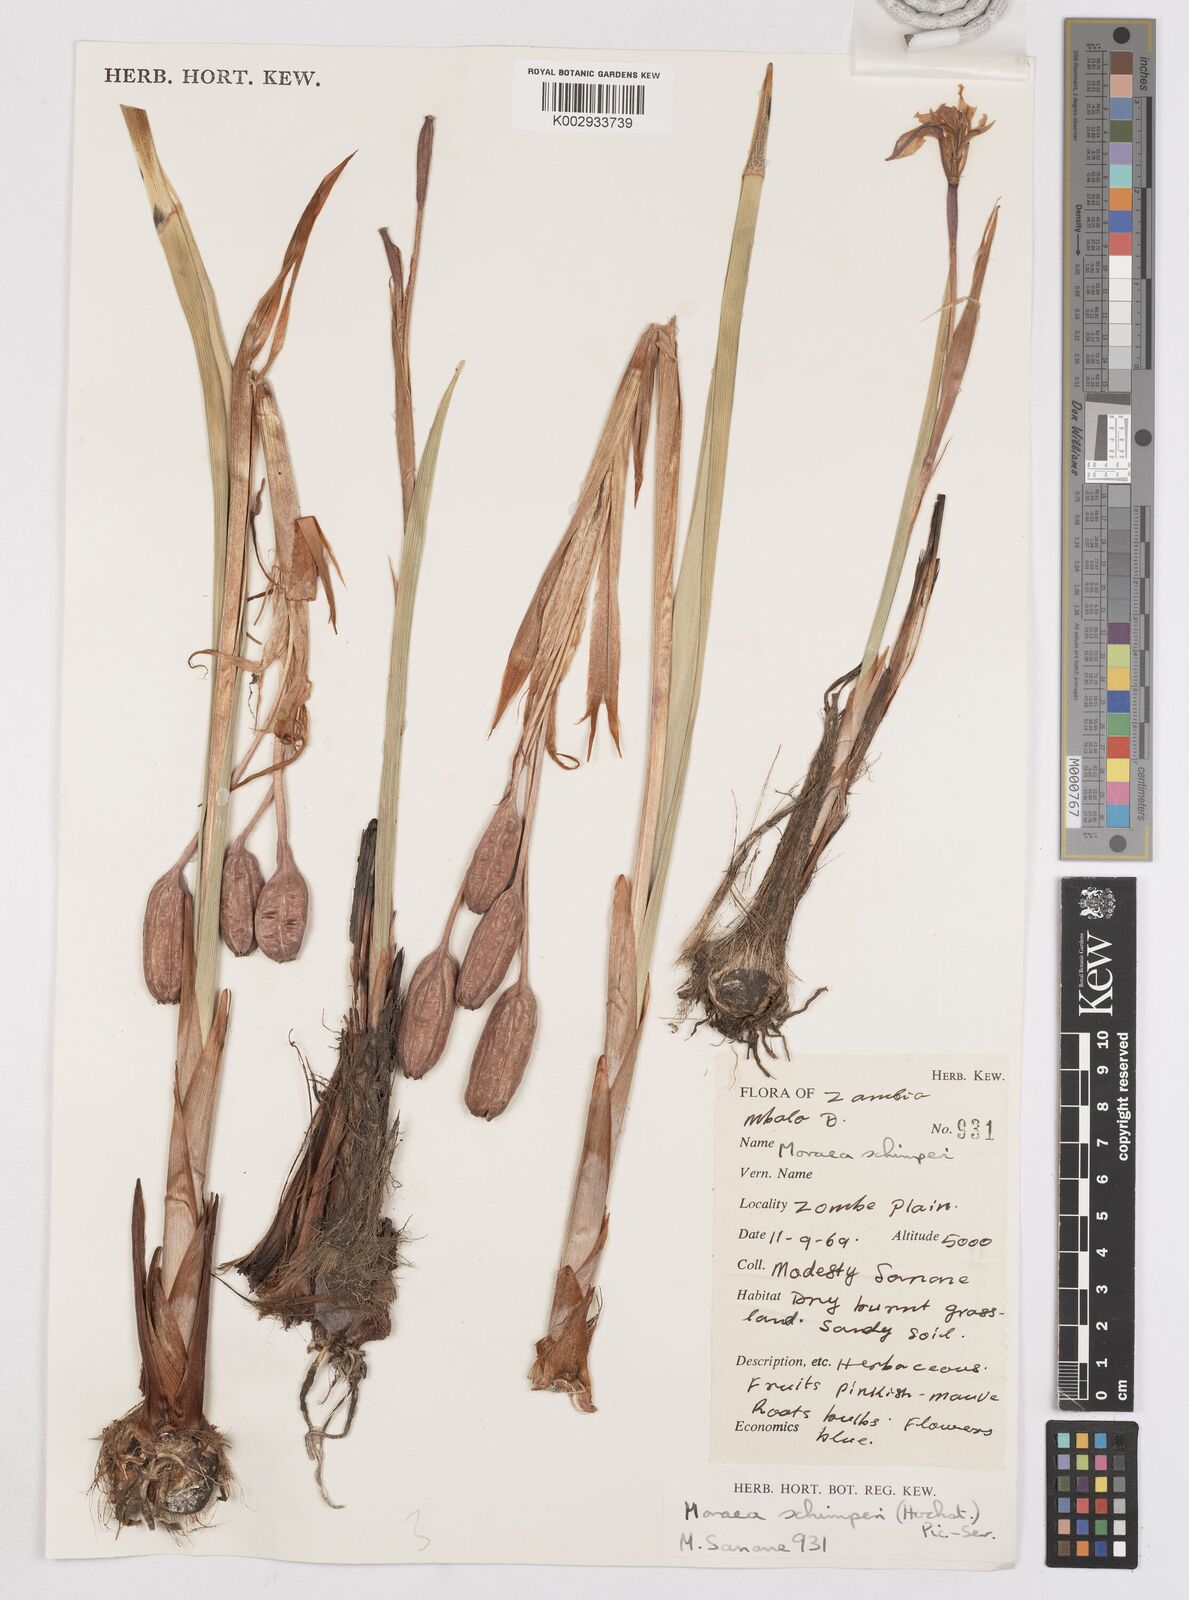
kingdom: Plantae
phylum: Tracheophyta
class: Liliopsida
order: Asparagales
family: Iridaceae
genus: Moraea
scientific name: Moraea schimperi
